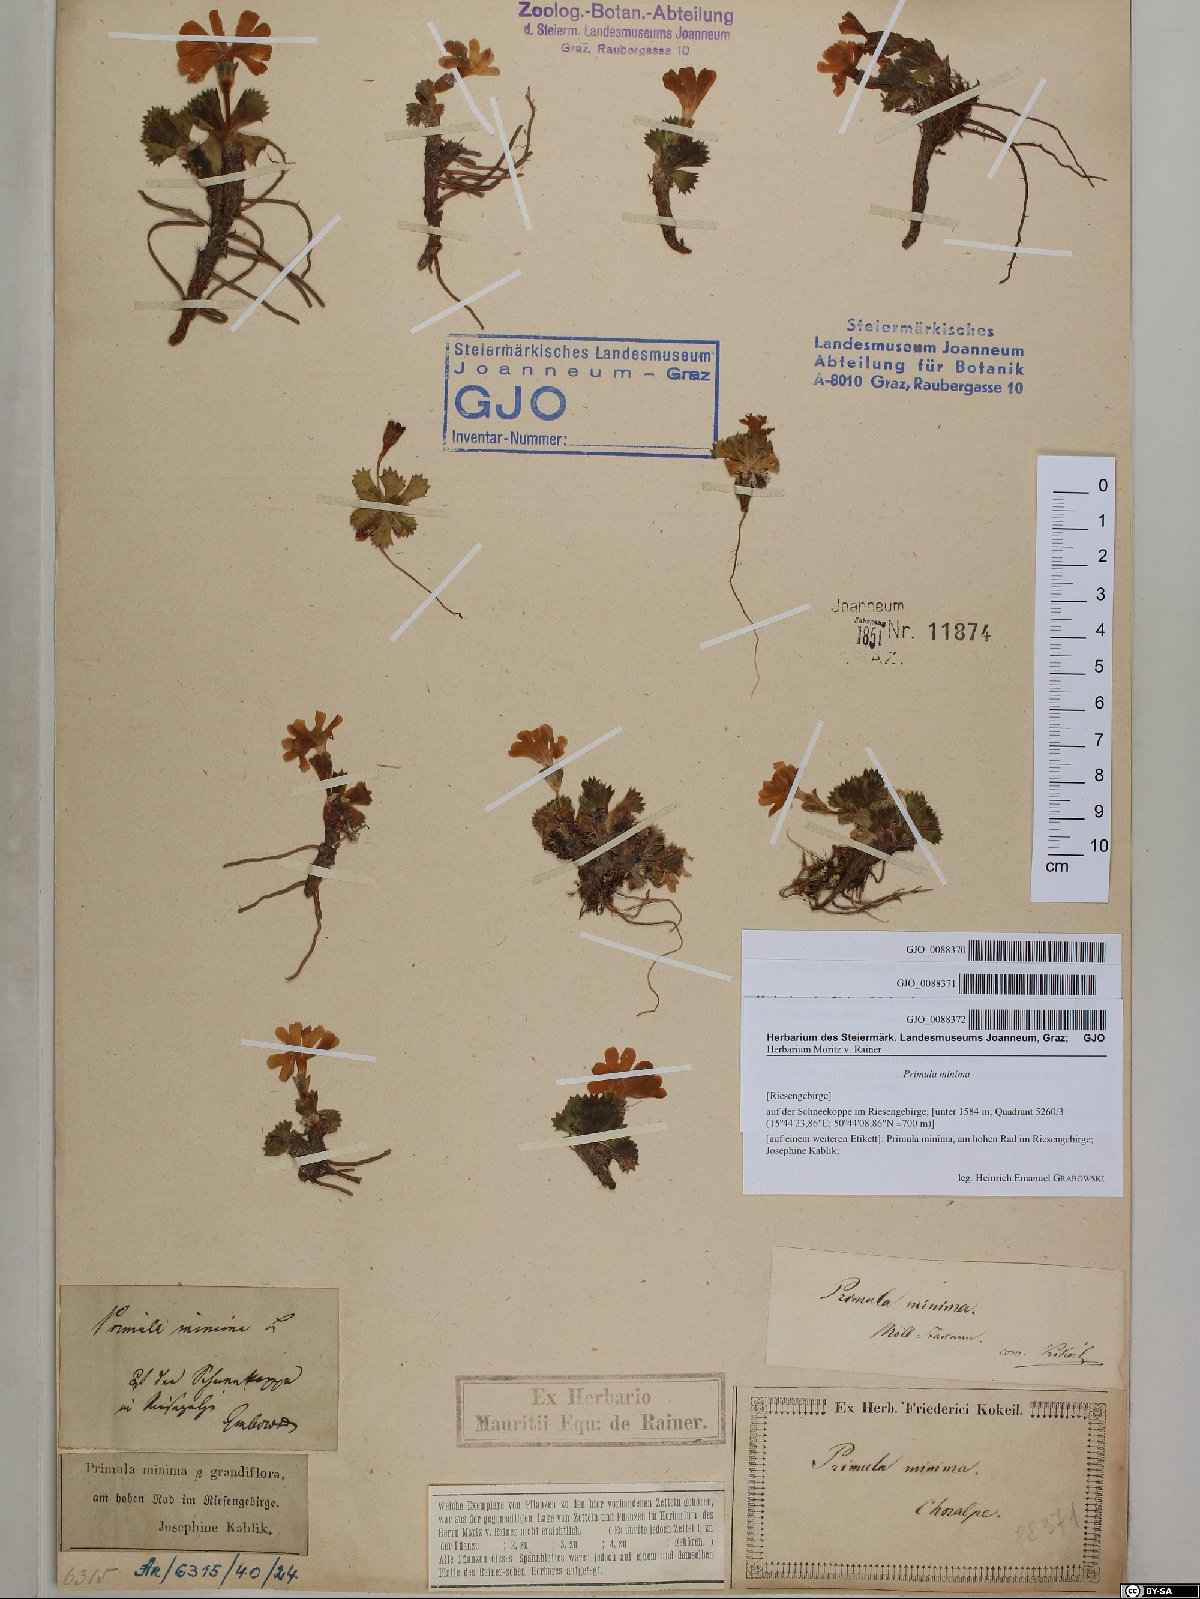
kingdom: Plantae
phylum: Tracheophyta
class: Magnoliopsida
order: Ericales
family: Primulaceae
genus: Primula
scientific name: Primula minima
